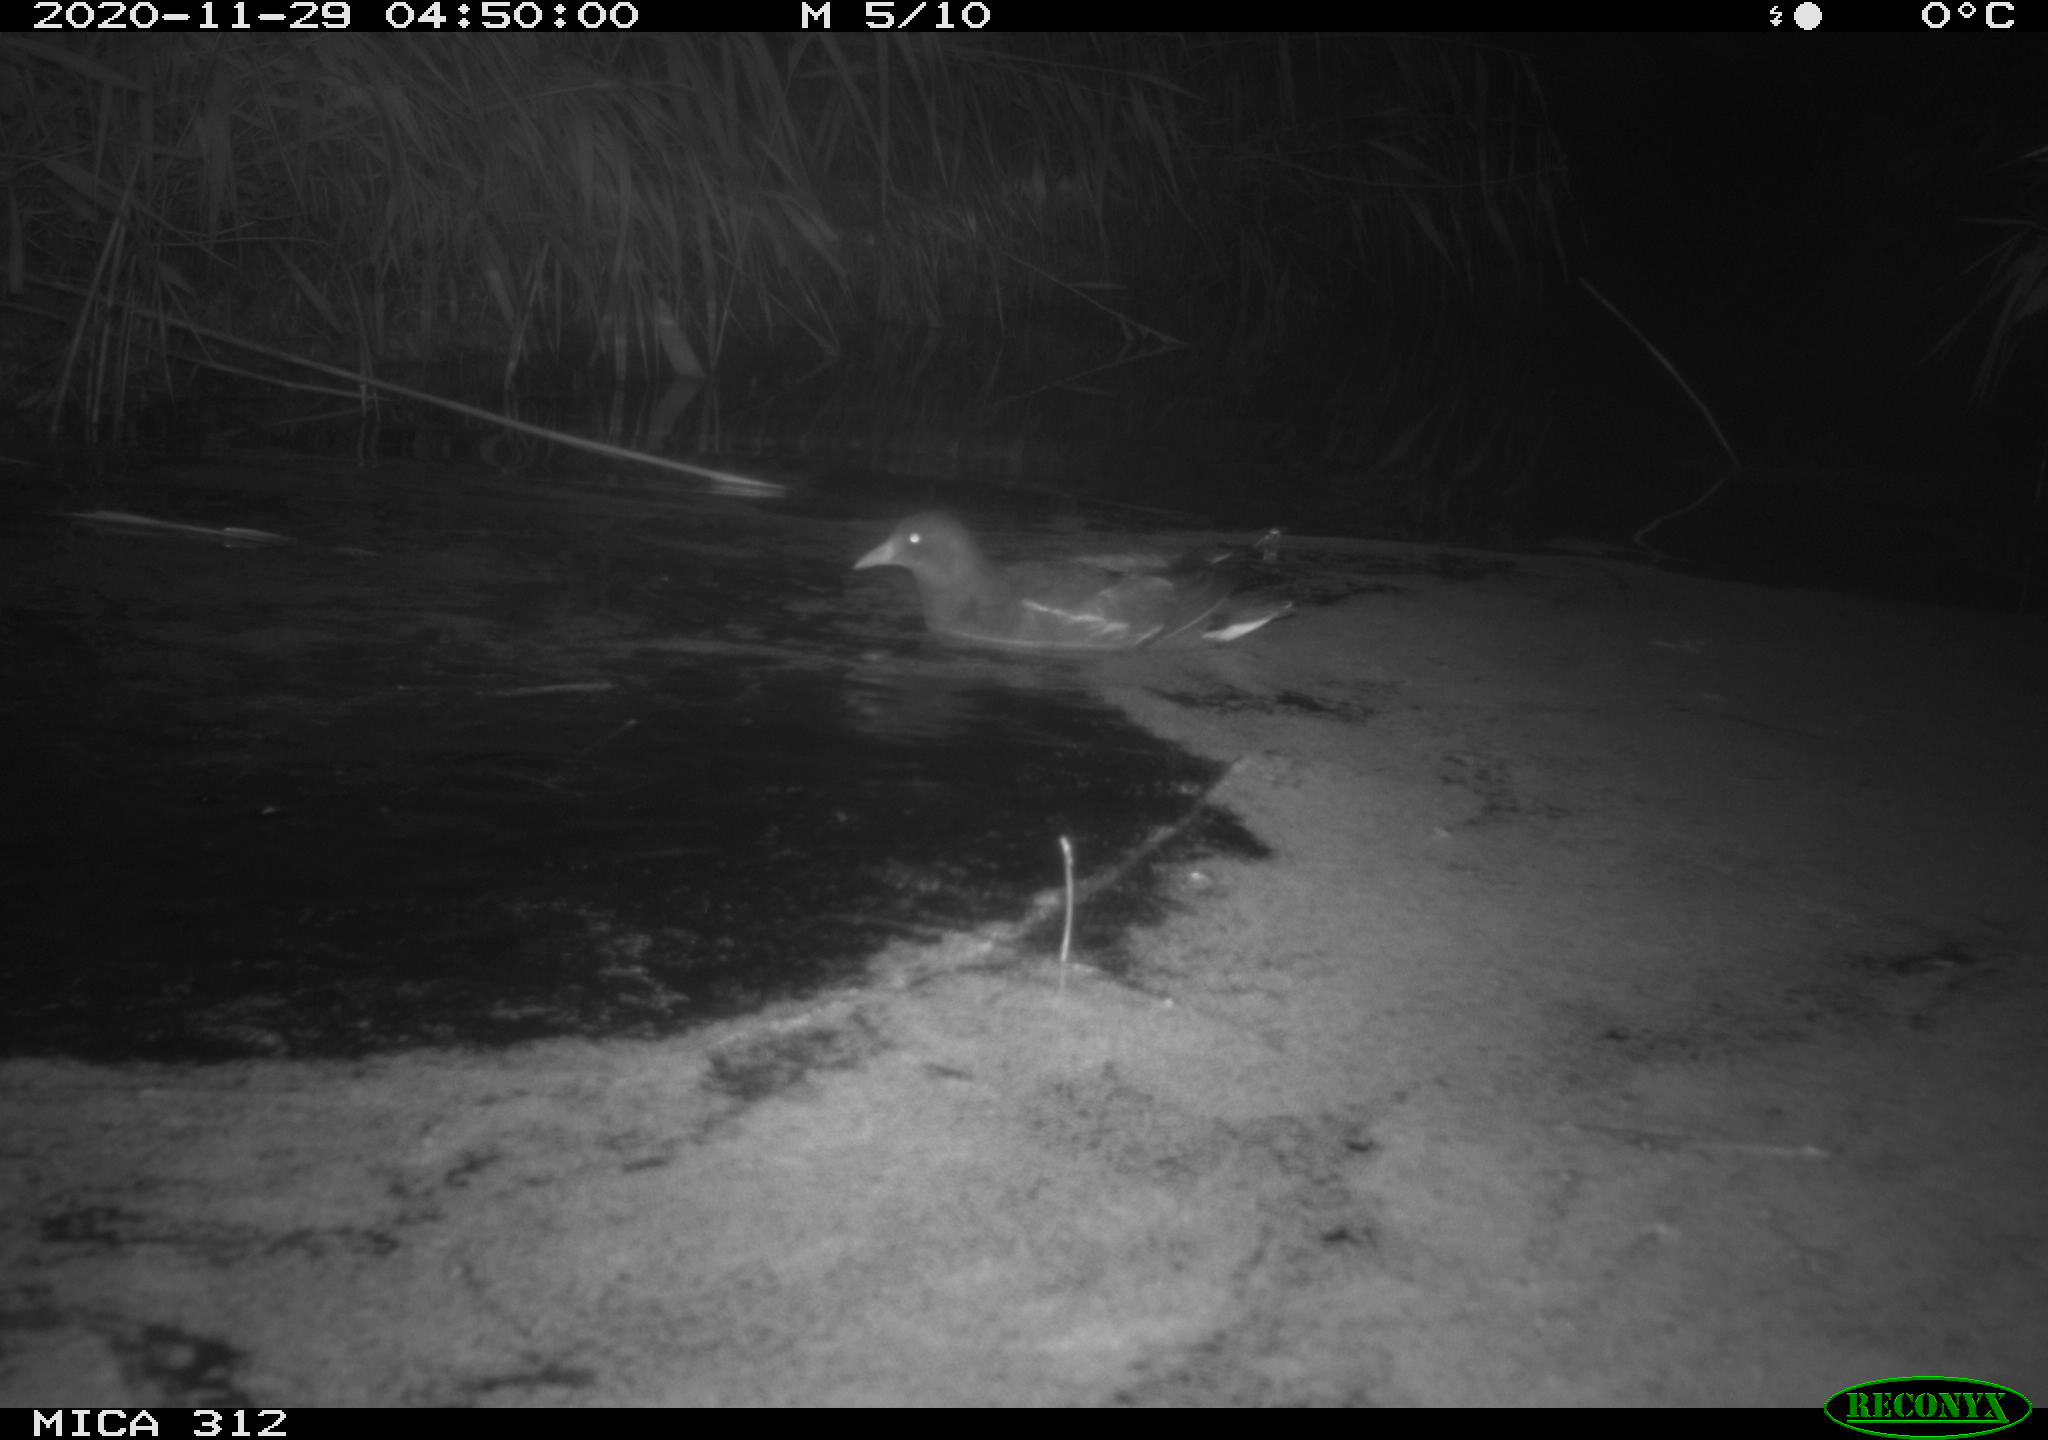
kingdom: Animalia
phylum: Chordata
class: Aves
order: Gruiformes
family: Rallidae
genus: Gallinula
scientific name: Gallinula chloropus
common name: Common moorhen
